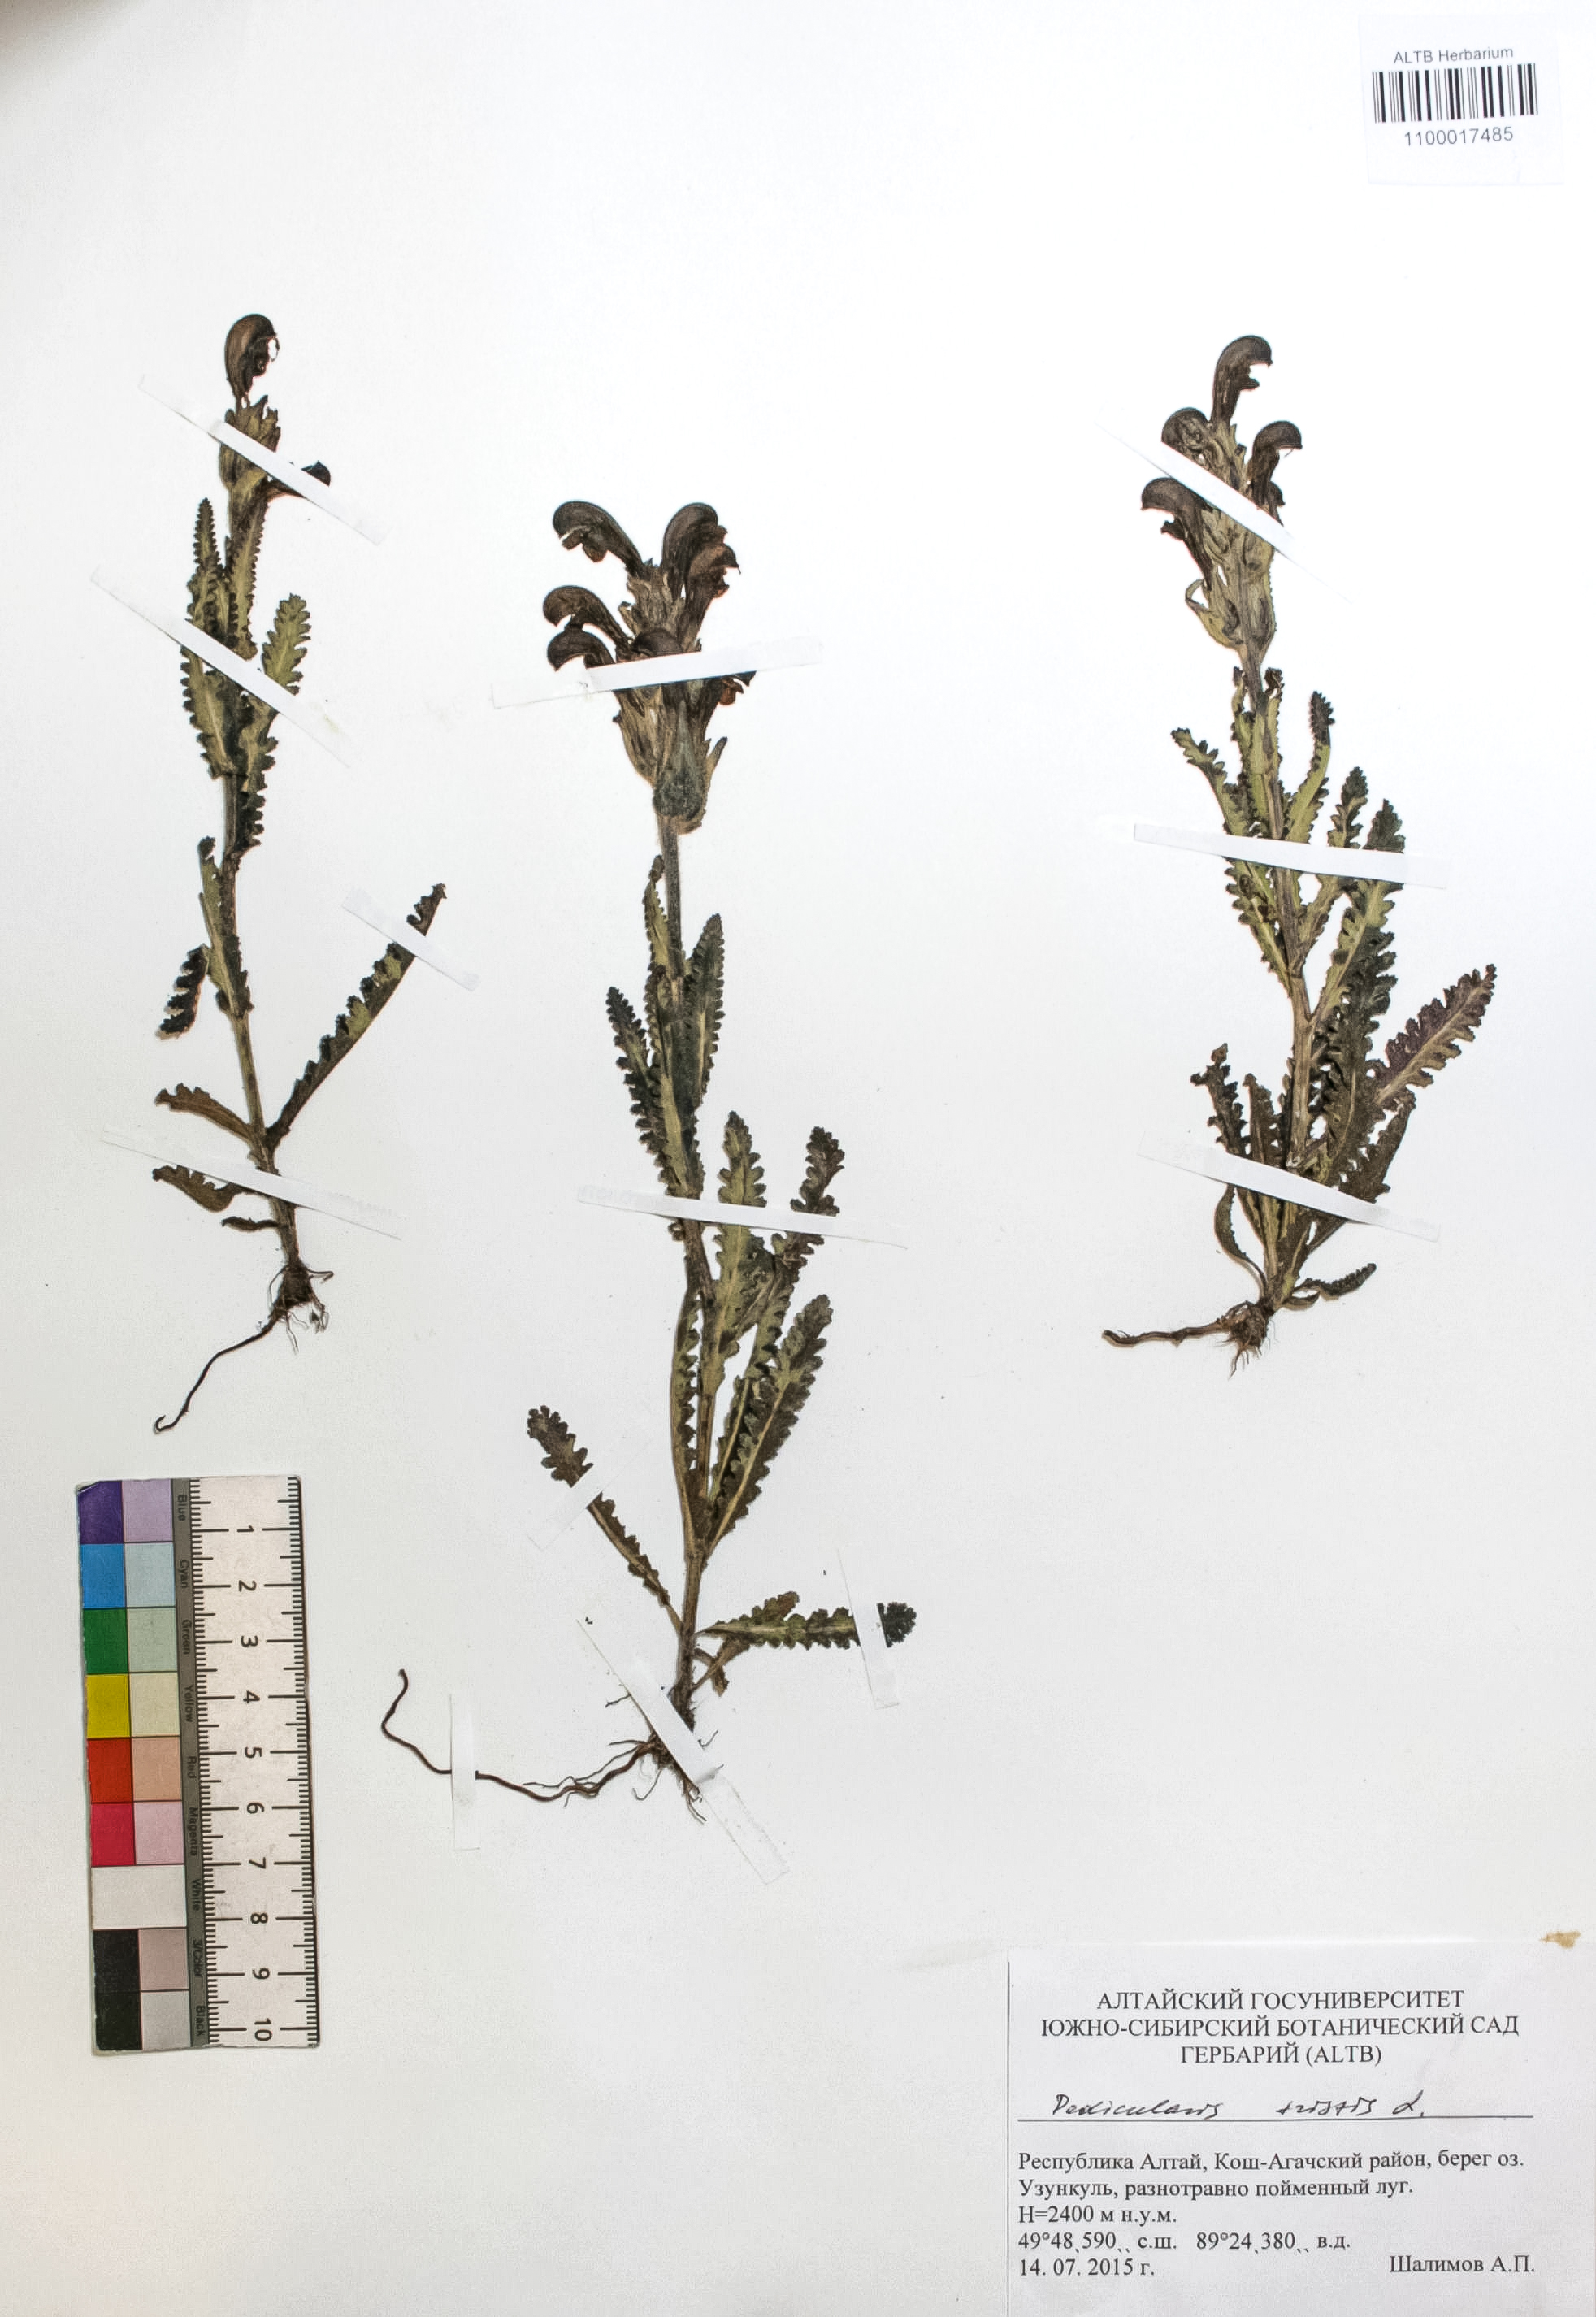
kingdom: Plantae
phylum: Tracheophyta
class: Magnoliopsida
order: Lamiales
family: Orobanchaceae
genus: Pedicularis
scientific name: Pedicularis tristis
